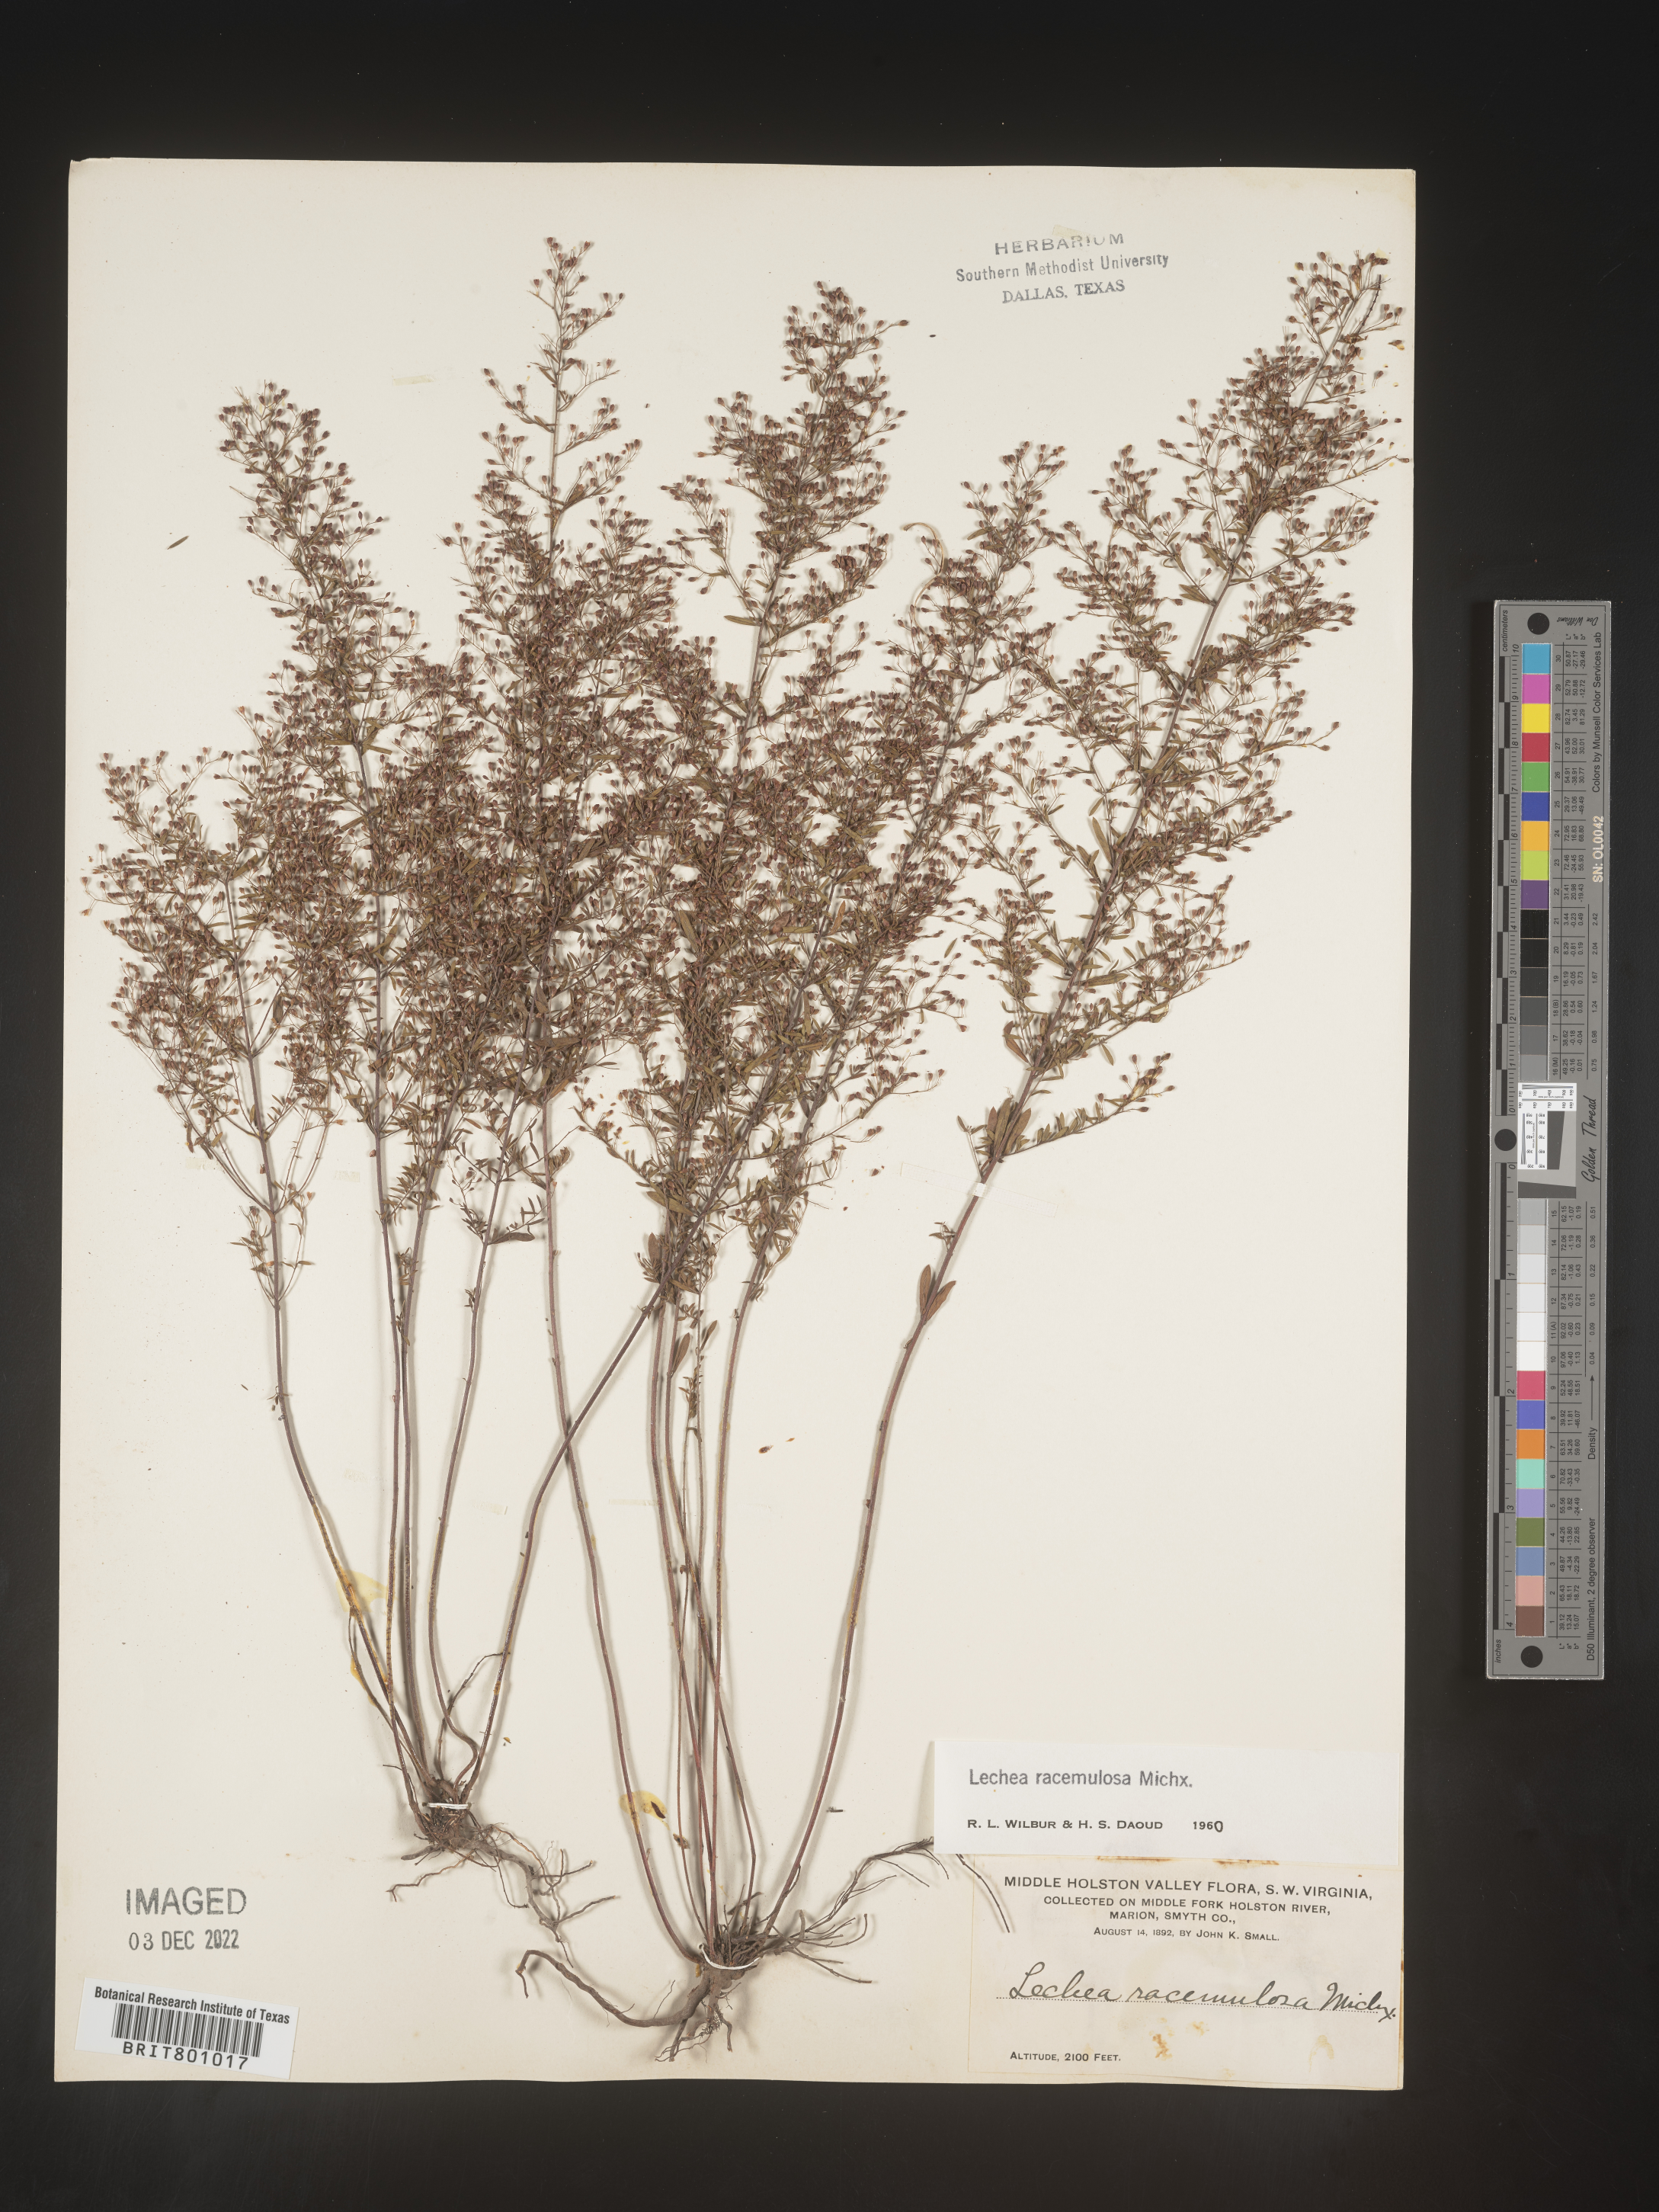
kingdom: Plantae
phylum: Tracheophyta
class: Magnoliopsida
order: Malvales
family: Cistaceae
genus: Lechea
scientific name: Lechea racemulosa
